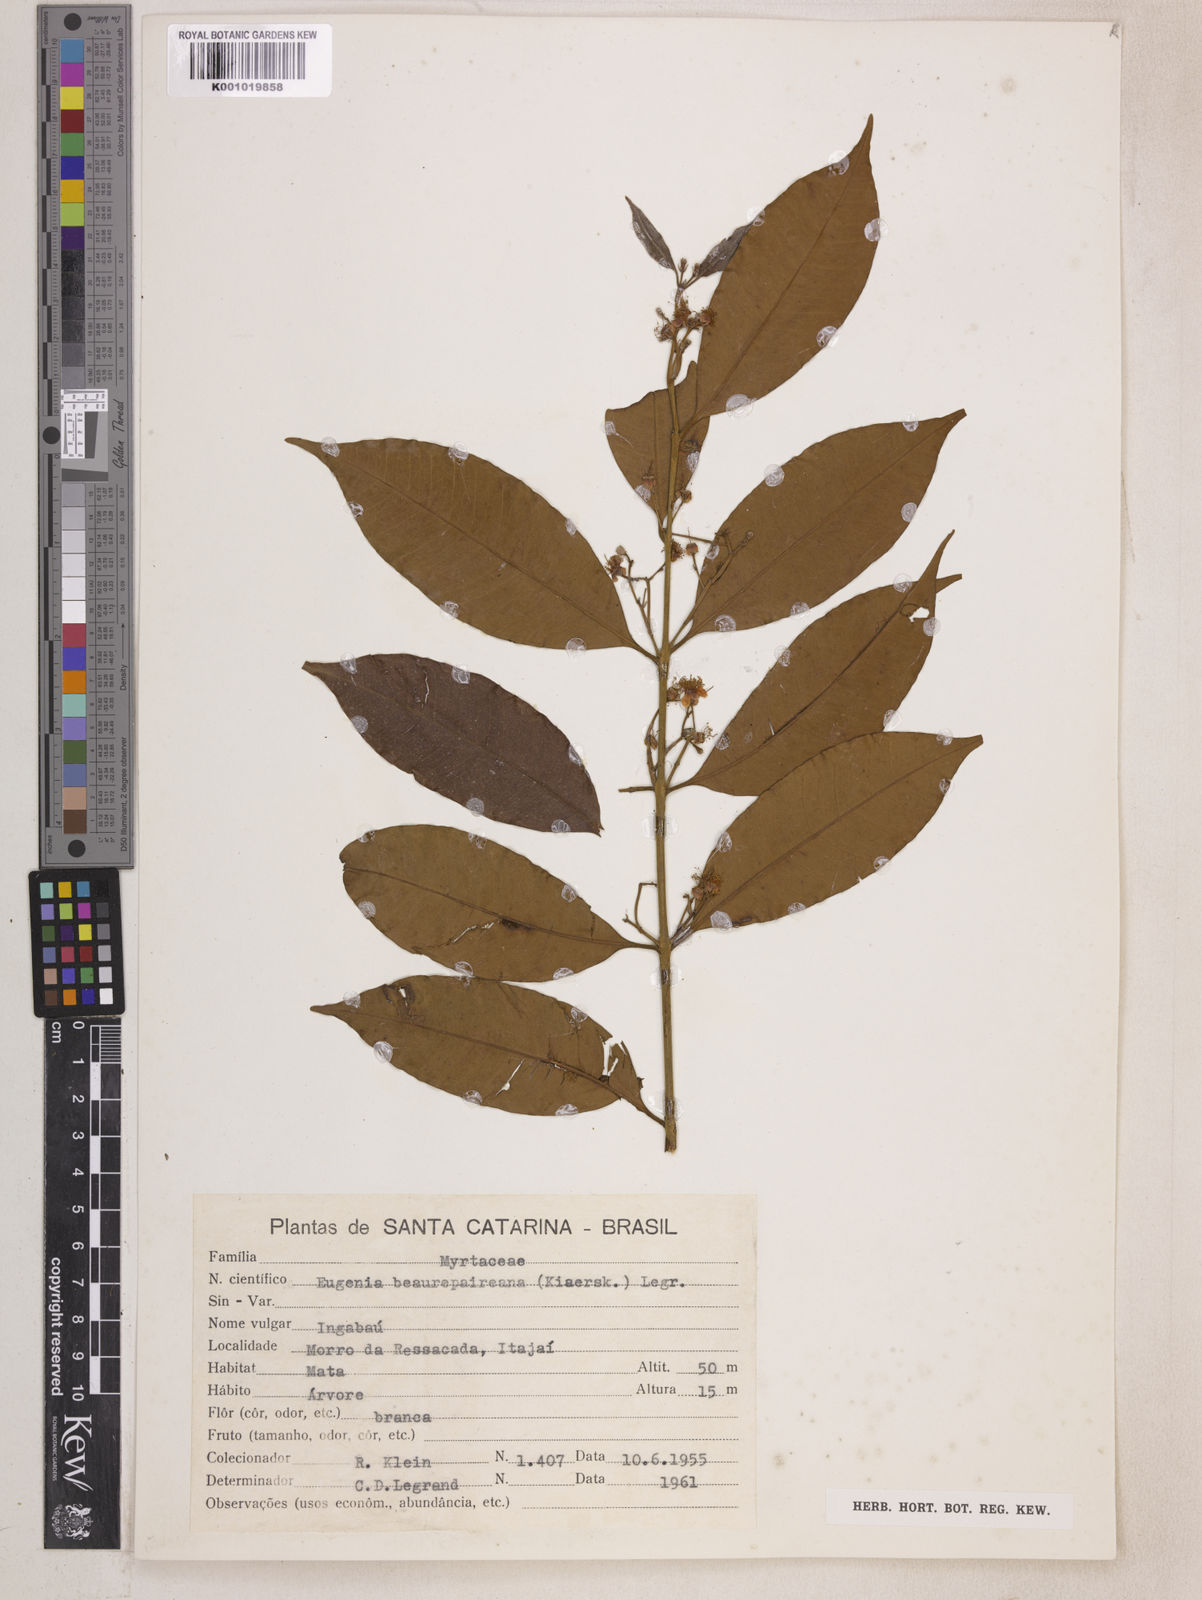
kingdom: Plantae
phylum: Tracheophyta
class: Magnoliopsida
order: Myrtales
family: Myrtaceae
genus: Eugenia
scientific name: Eugenia ternatifolia
